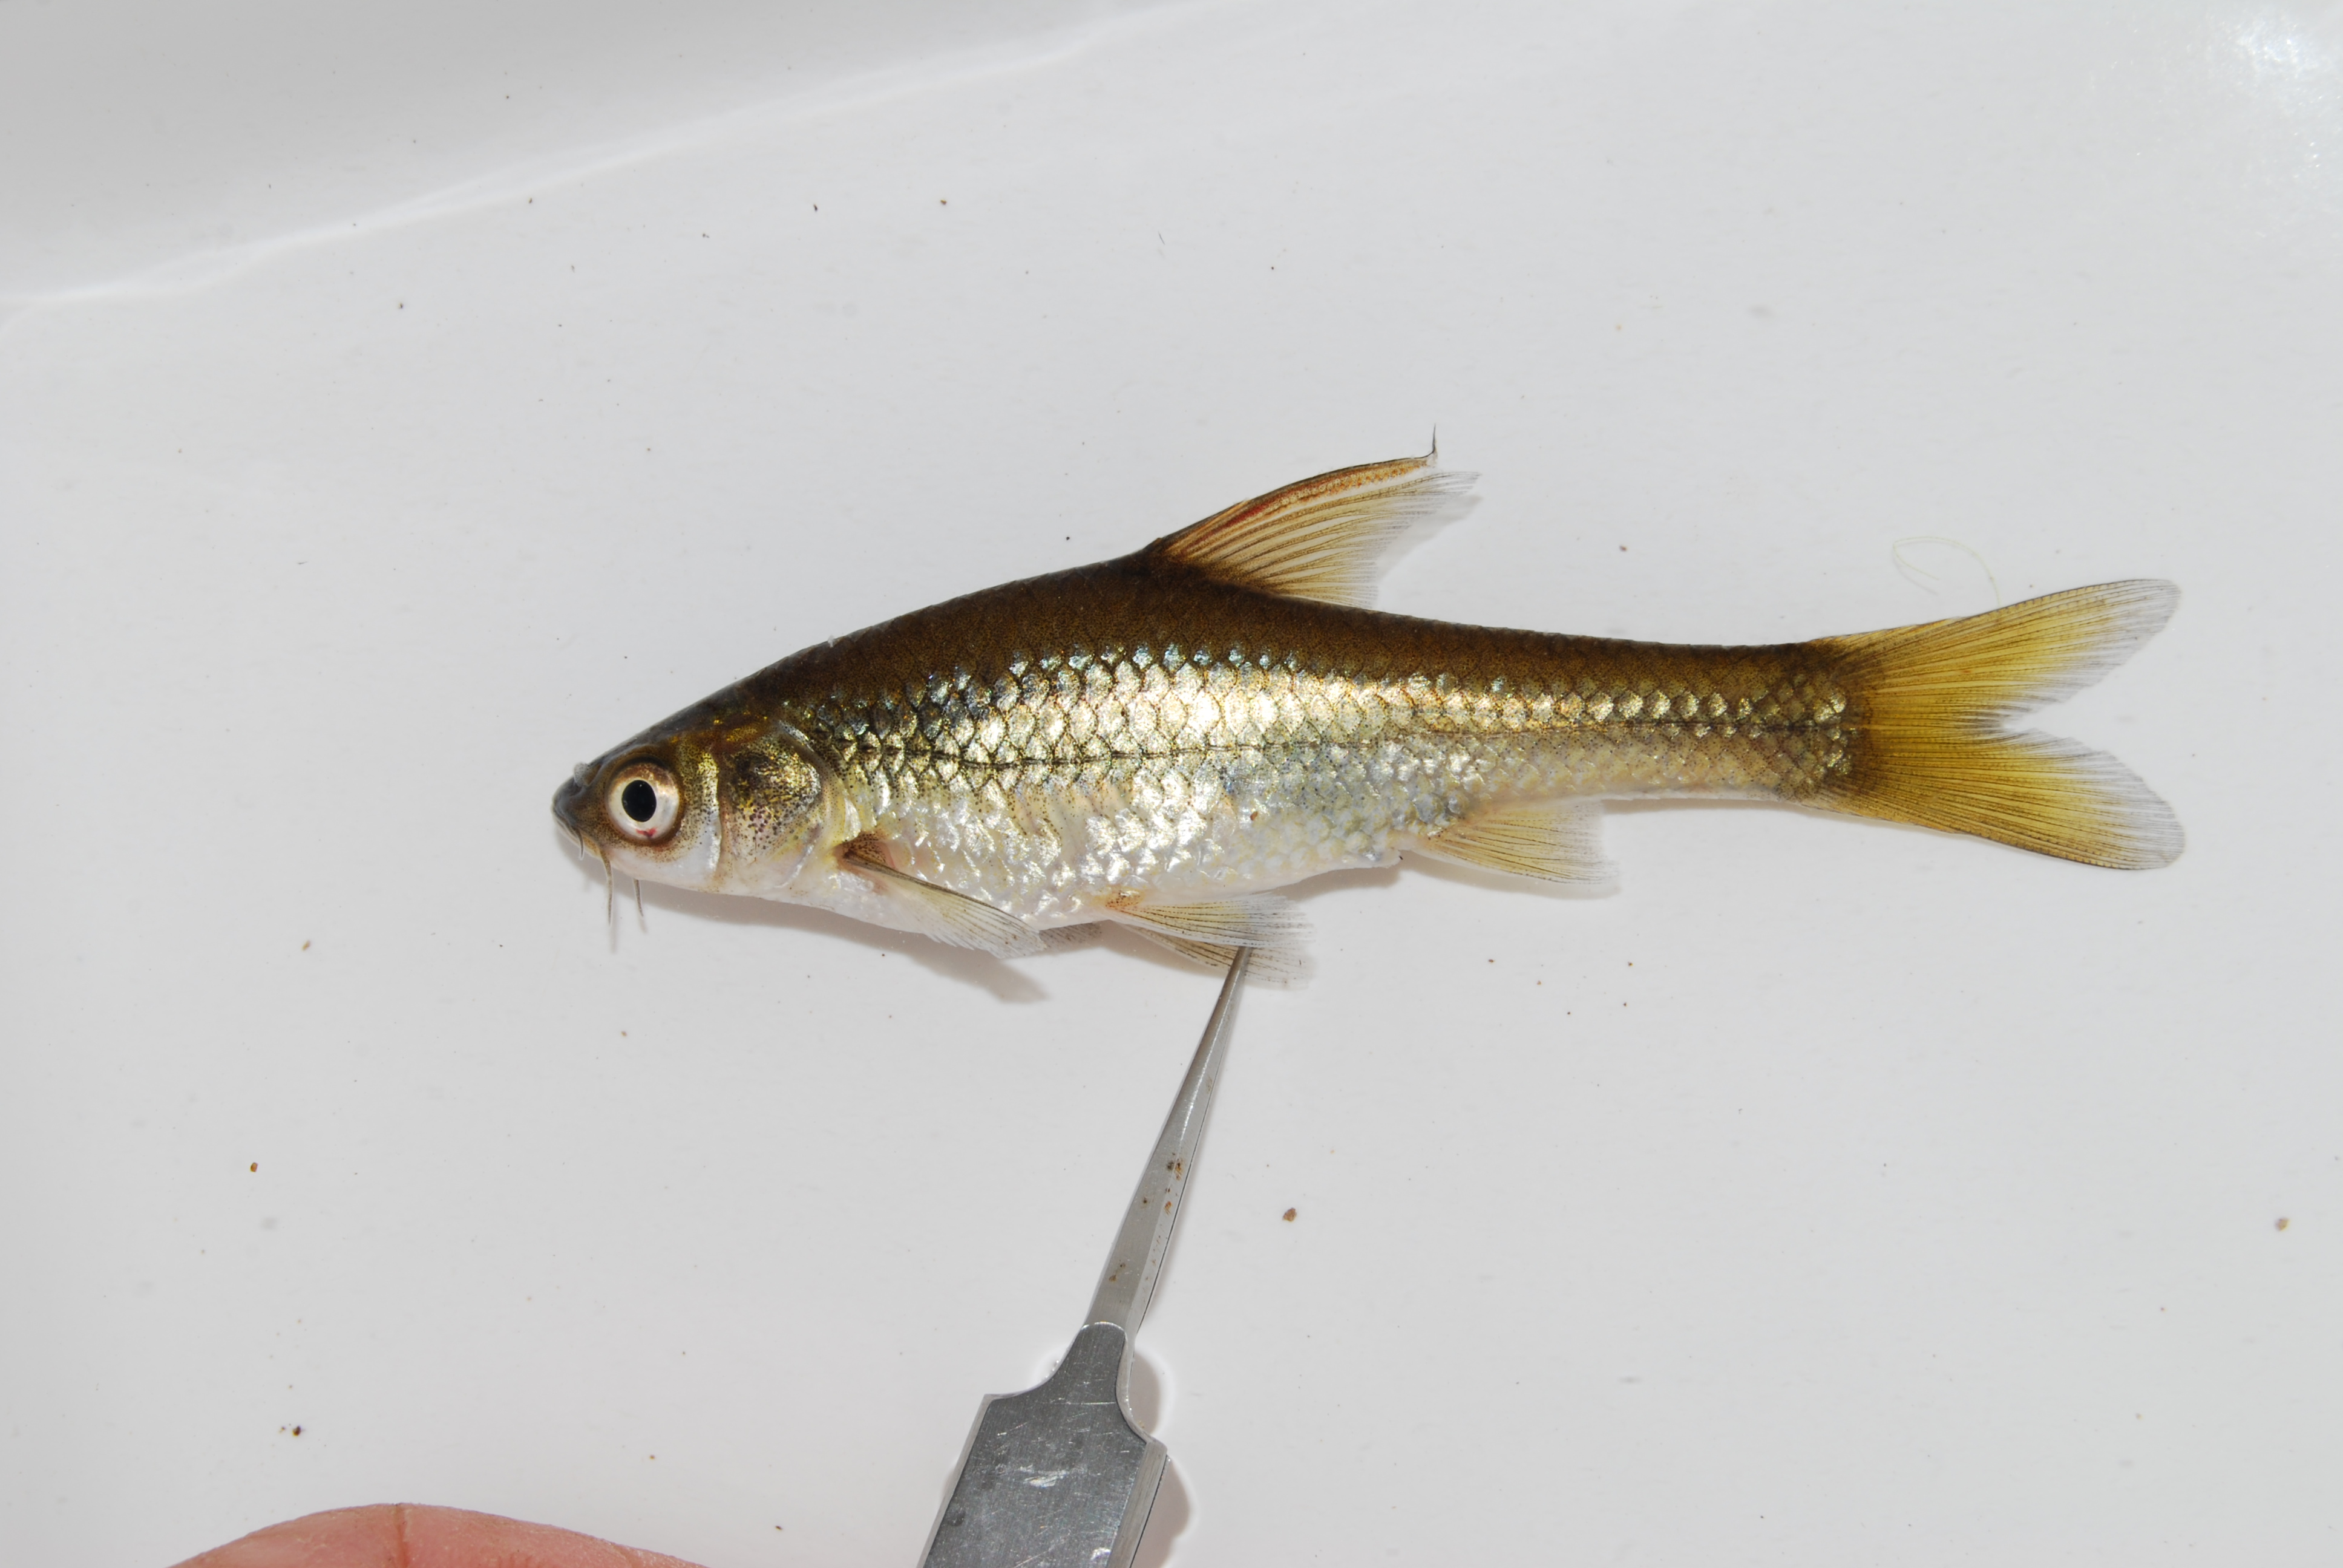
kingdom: Animalia
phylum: Chordata
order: Cypriniformes
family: Cyprinidae
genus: Enteromius
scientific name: Enteromius paludinosus
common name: Straightfin barb
